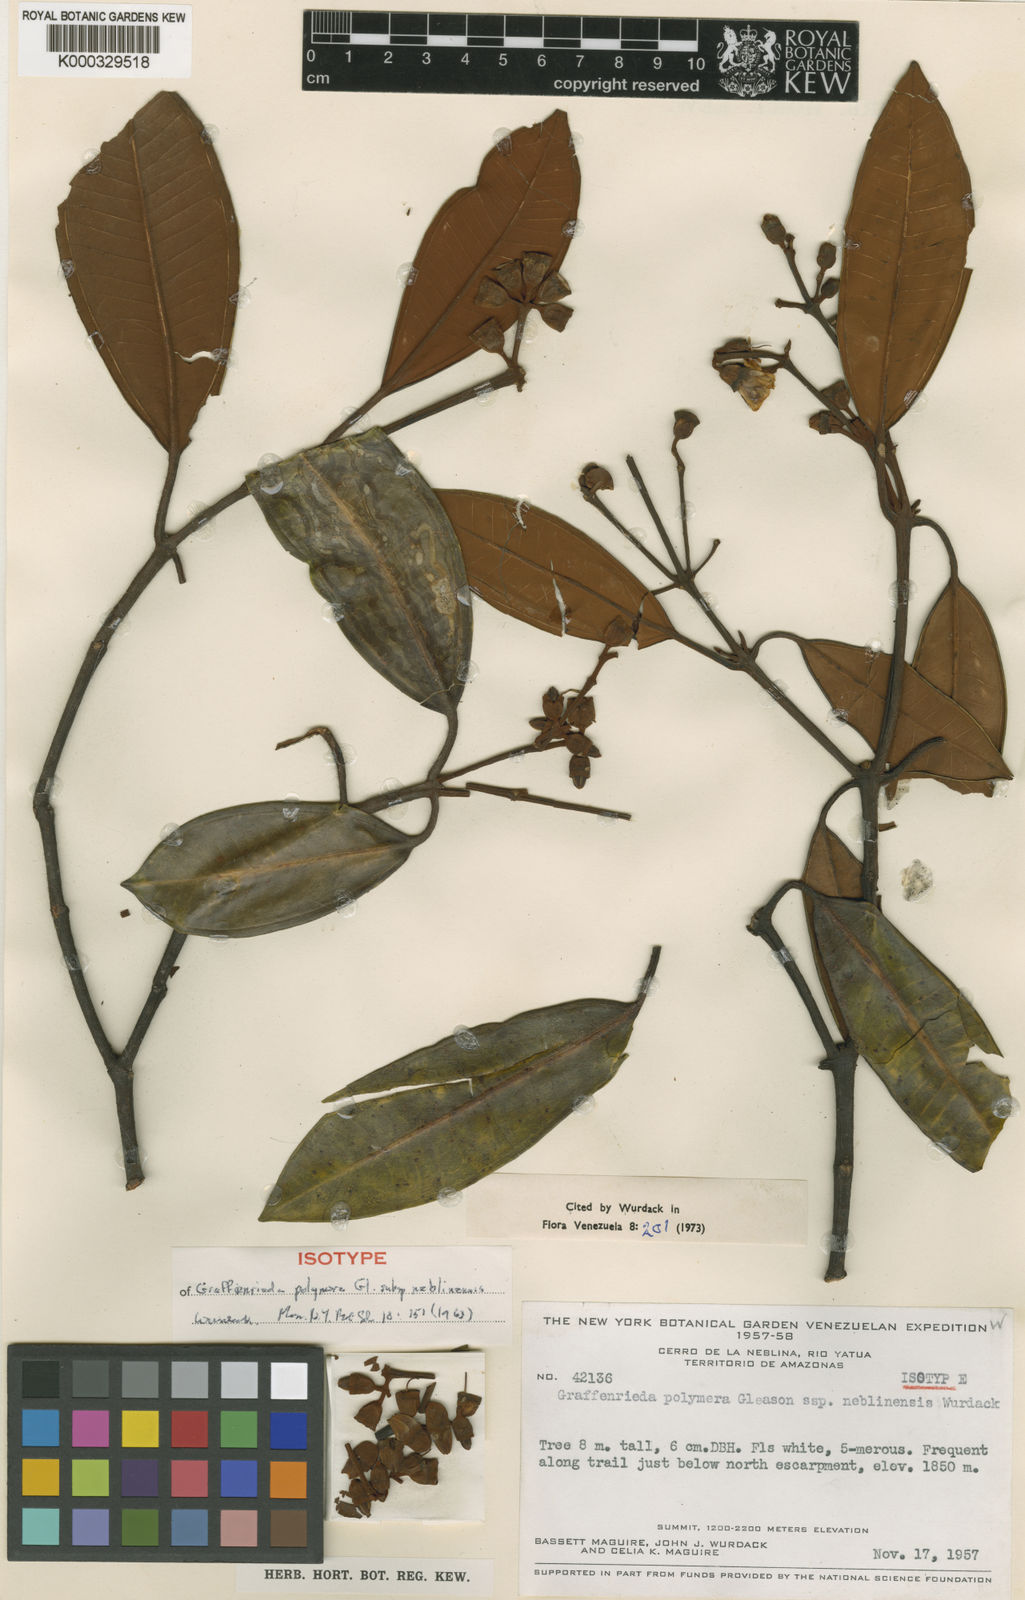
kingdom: Plantae
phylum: Tracheophyta
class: Magnoliopsida
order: Myrtales
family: Melastomataceae
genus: Graffenrieda
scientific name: Graffenrieda polymera
